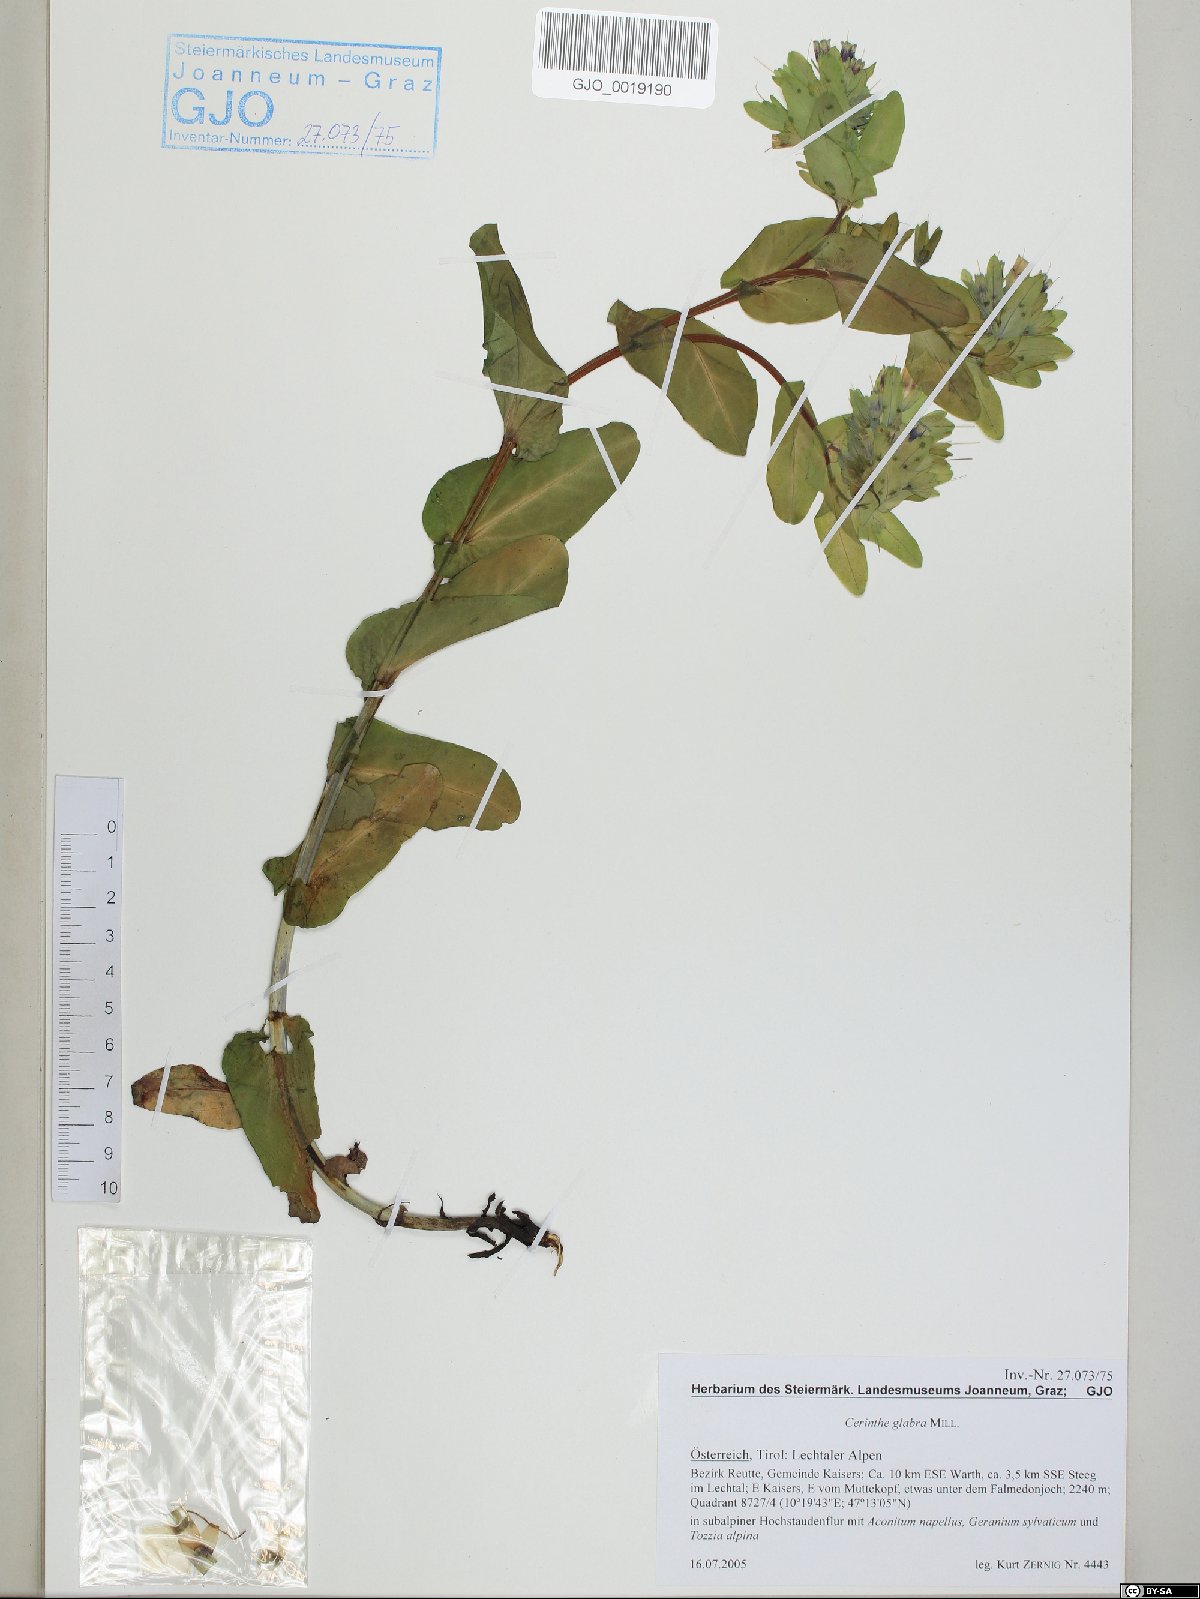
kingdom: Plantae
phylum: Tracheophyta
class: Magnoliopsida
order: Boraginales
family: Boraginaceae
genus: Cerinthe
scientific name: Cerinthe glabra
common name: Smooth honeywort
